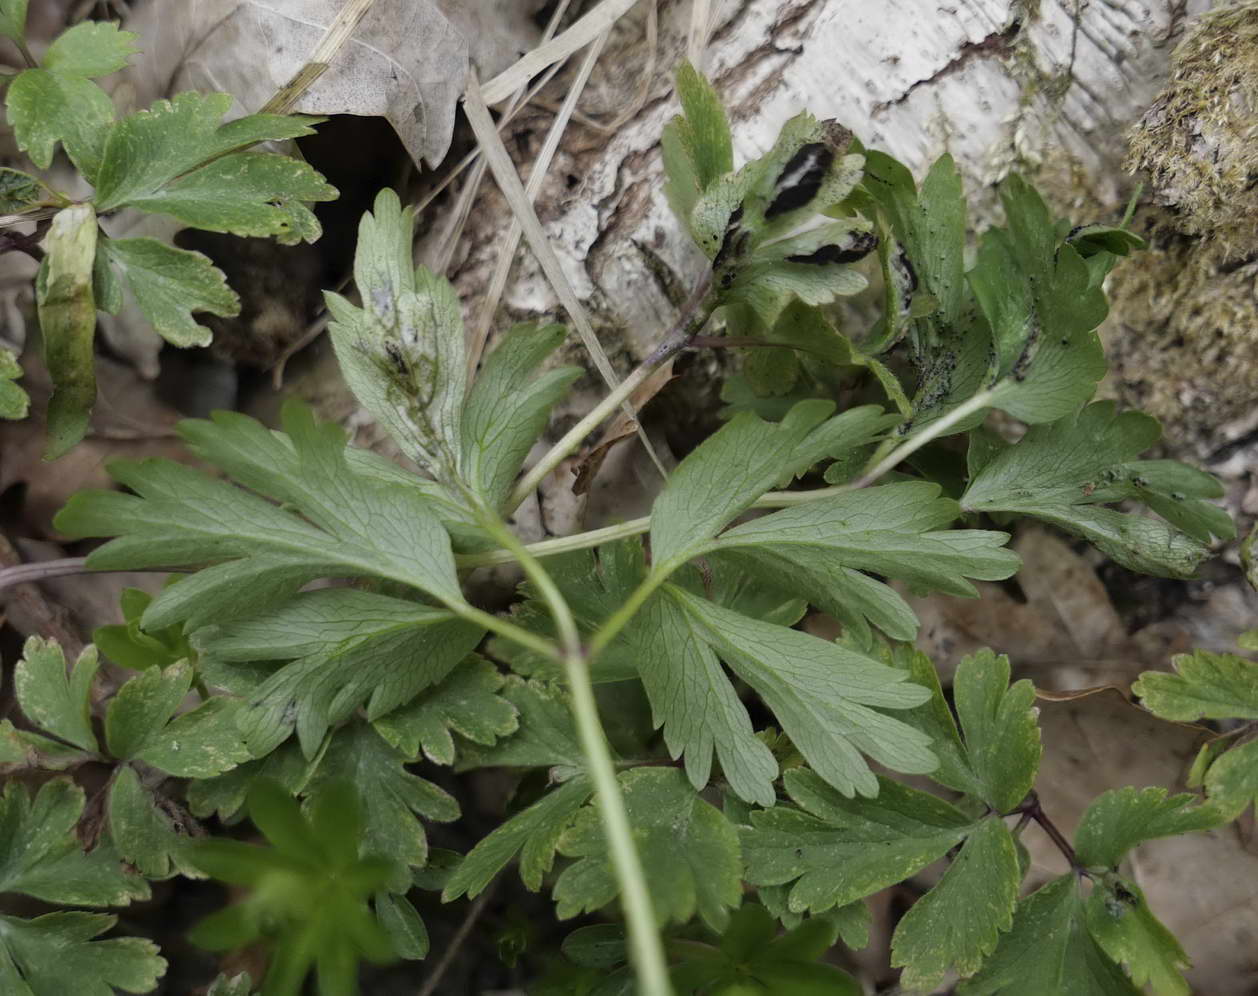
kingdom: Fungi
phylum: Basidiomycota
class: Ustilaginomycetes
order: Urocystidales
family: Urocystidaceae
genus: Urocystis
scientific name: Urocystis anemones
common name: anemone-brand
